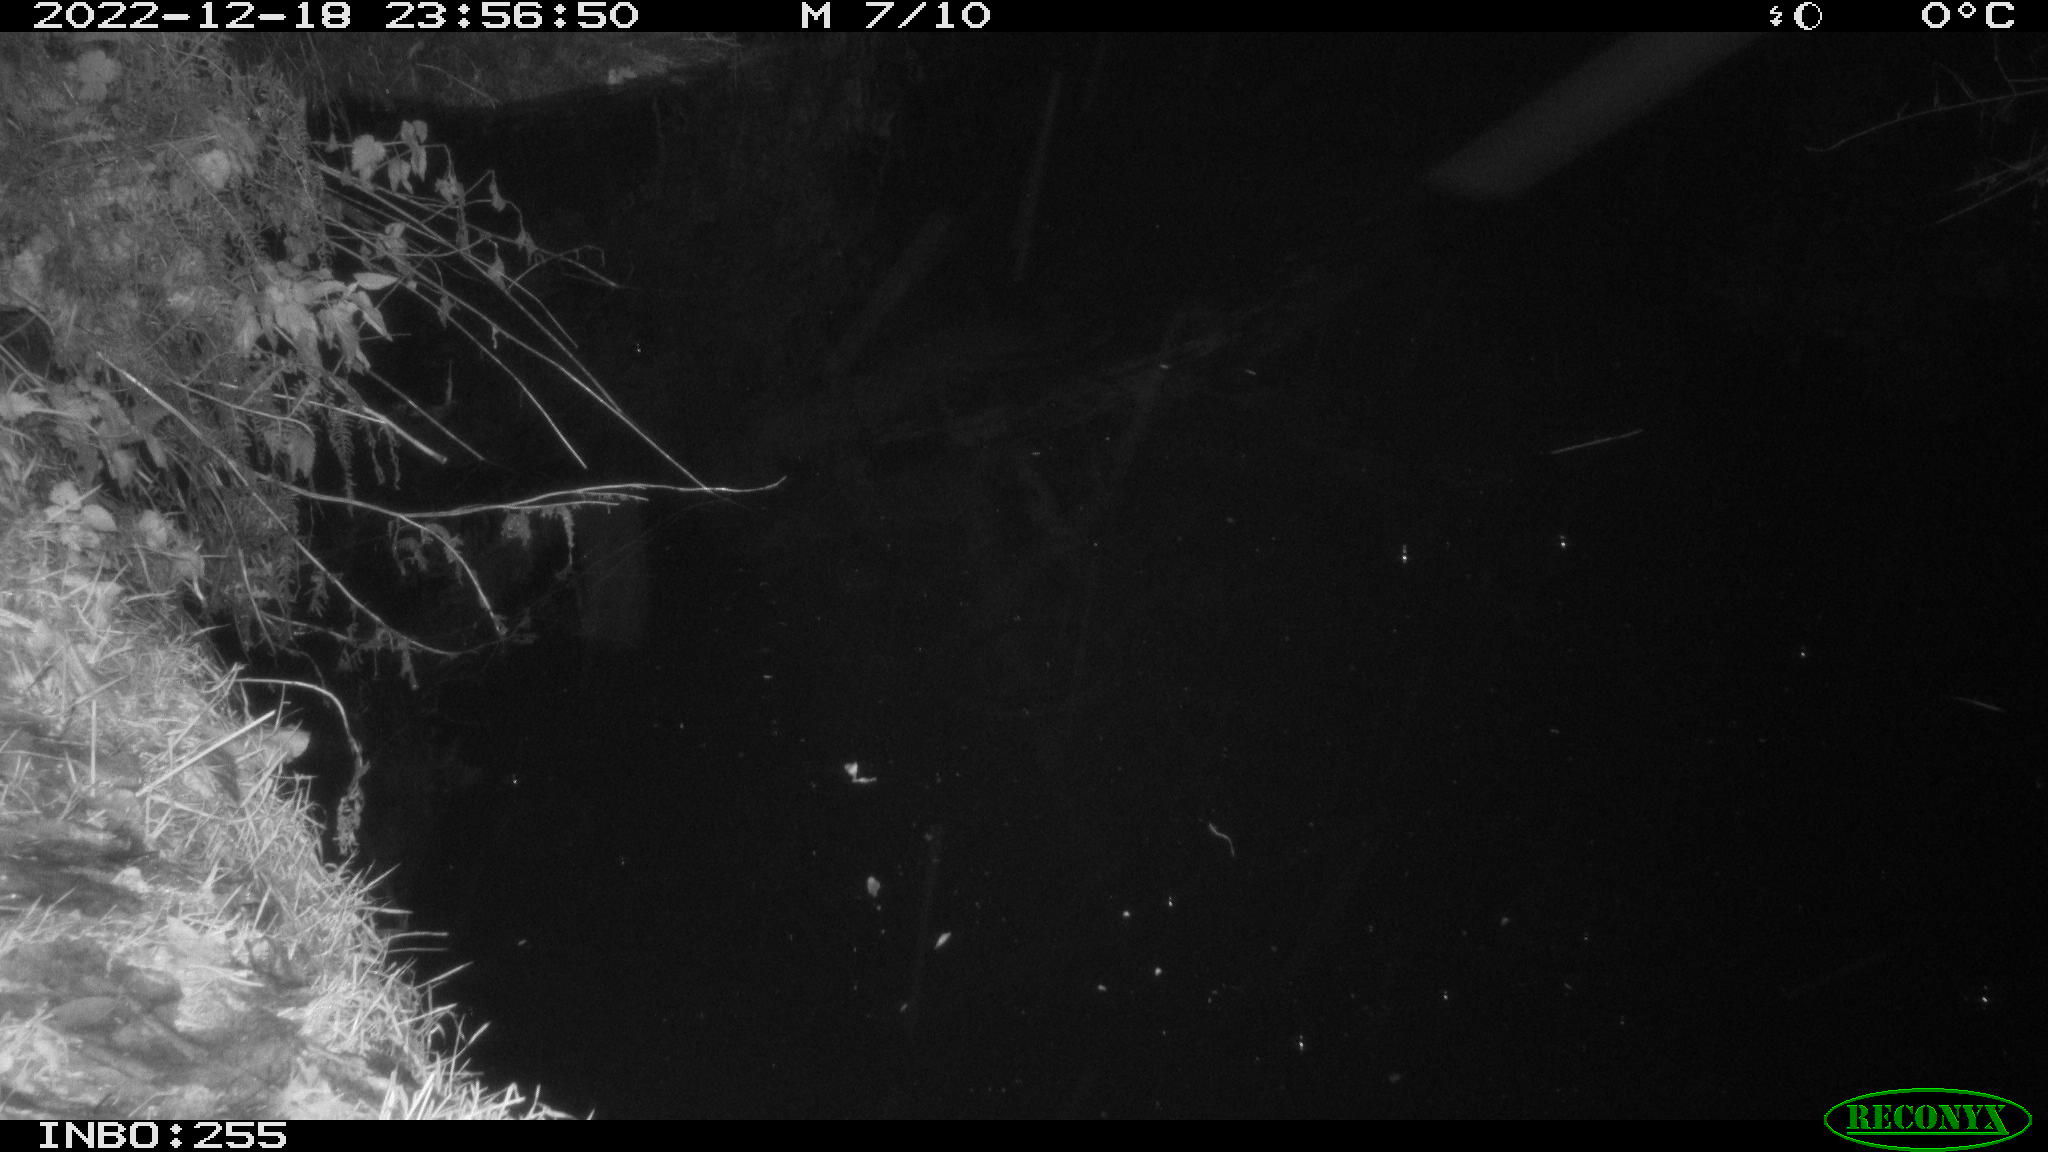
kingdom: Animalia
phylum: Chordata
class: Aves
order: Anseriformes
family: Anatidae
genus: Anas
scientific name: Anas platyrhynchos
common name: Mallard
